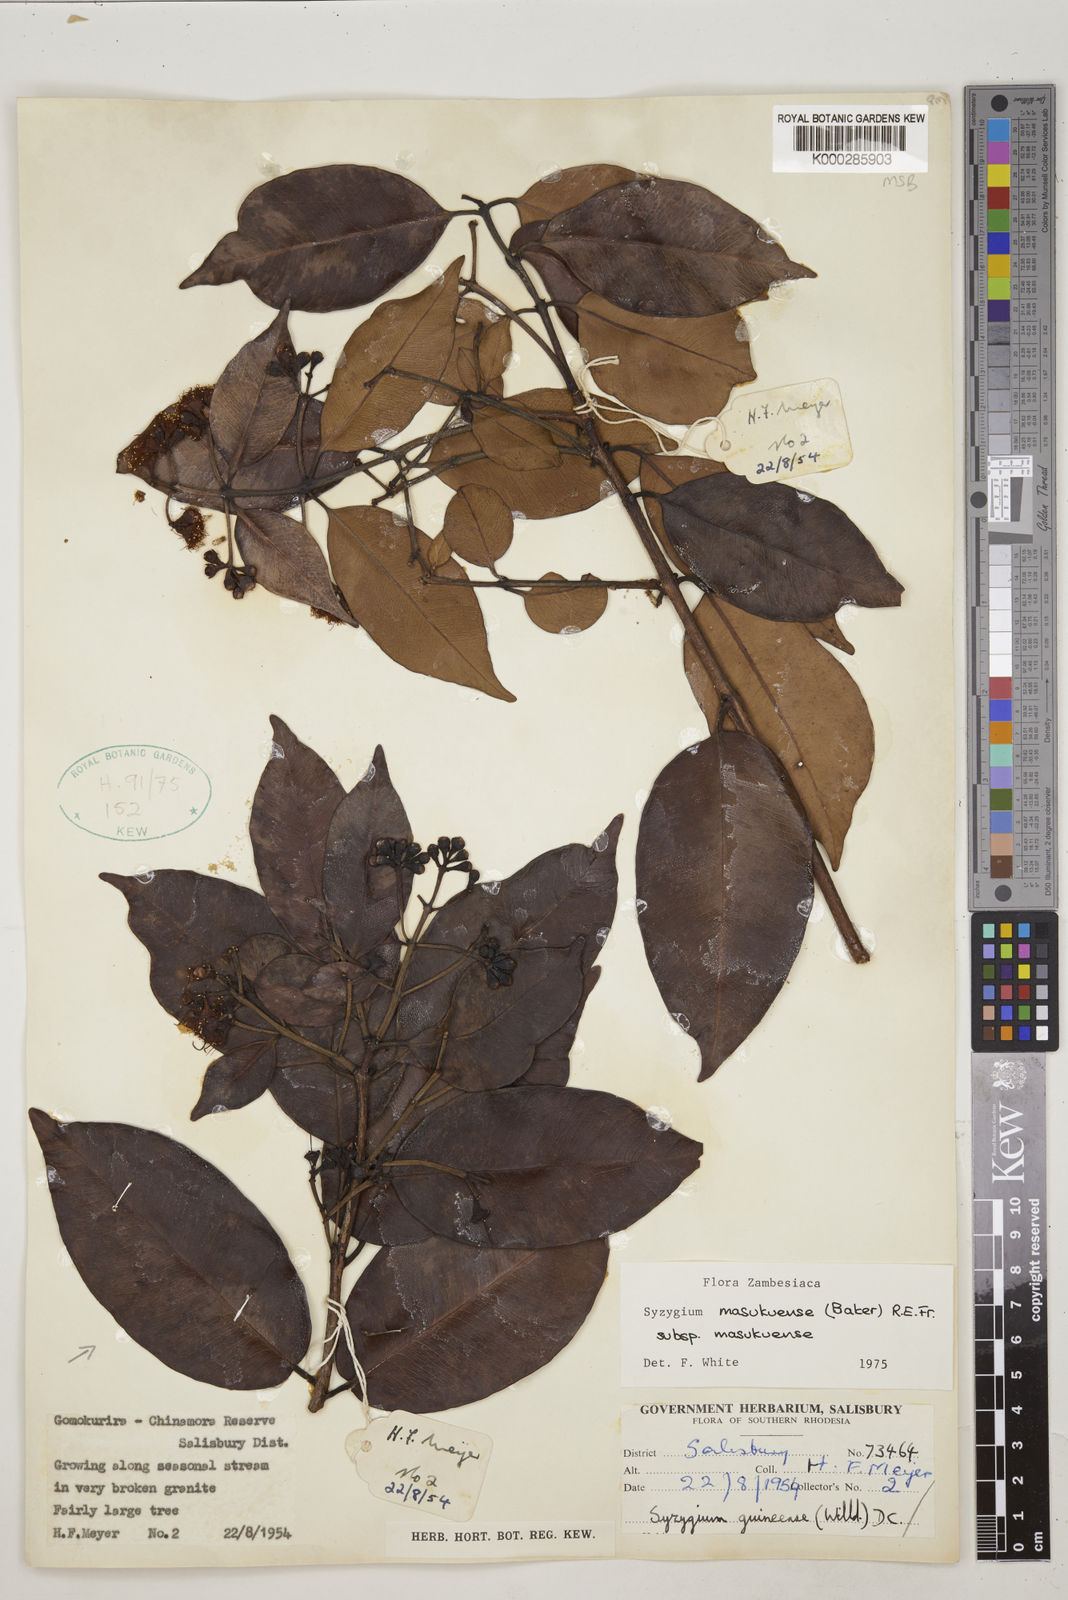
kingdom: Plantae
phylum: Tracheophyta
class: Magnoliopsida
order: Myrtales
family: Myrtaceae
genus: Syzygium
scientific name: Syzygium masukuense
